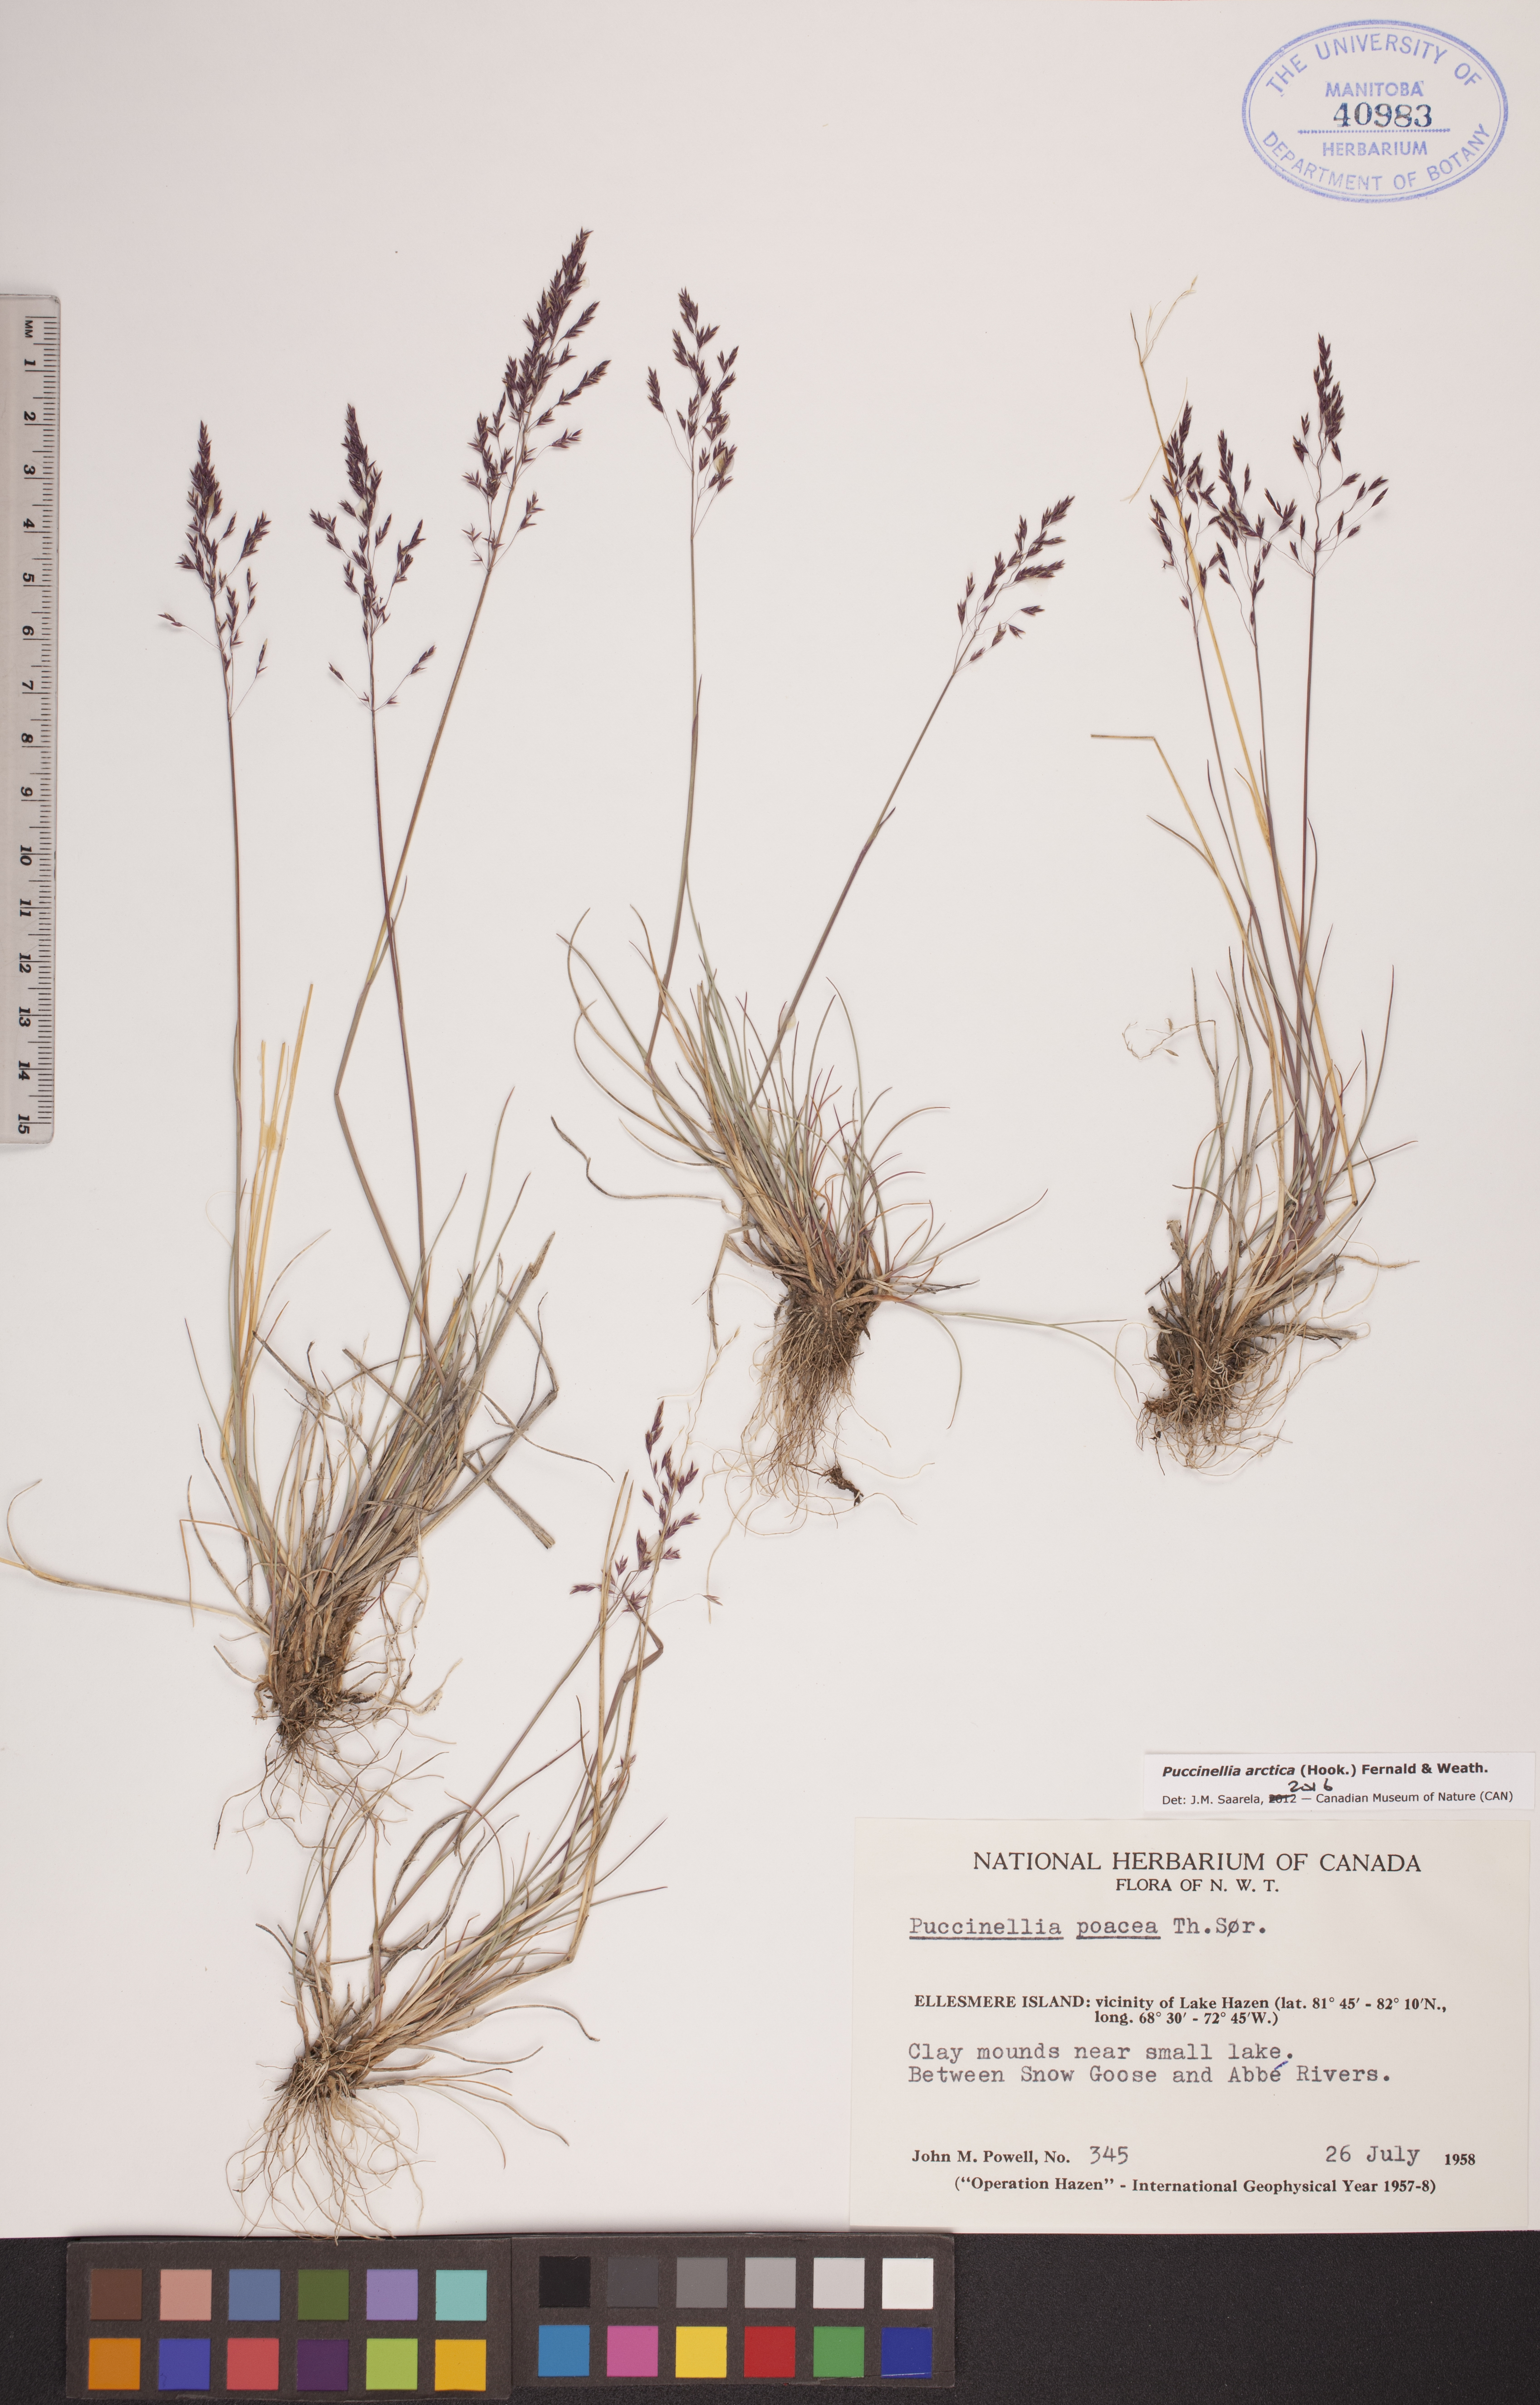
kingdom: Plantae
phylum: Tracheophyta
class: Liliopsida
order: Poales
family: Poaceae
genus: Puccinellia
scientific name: Puccinellia arctica
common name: Arctic alkali grass
